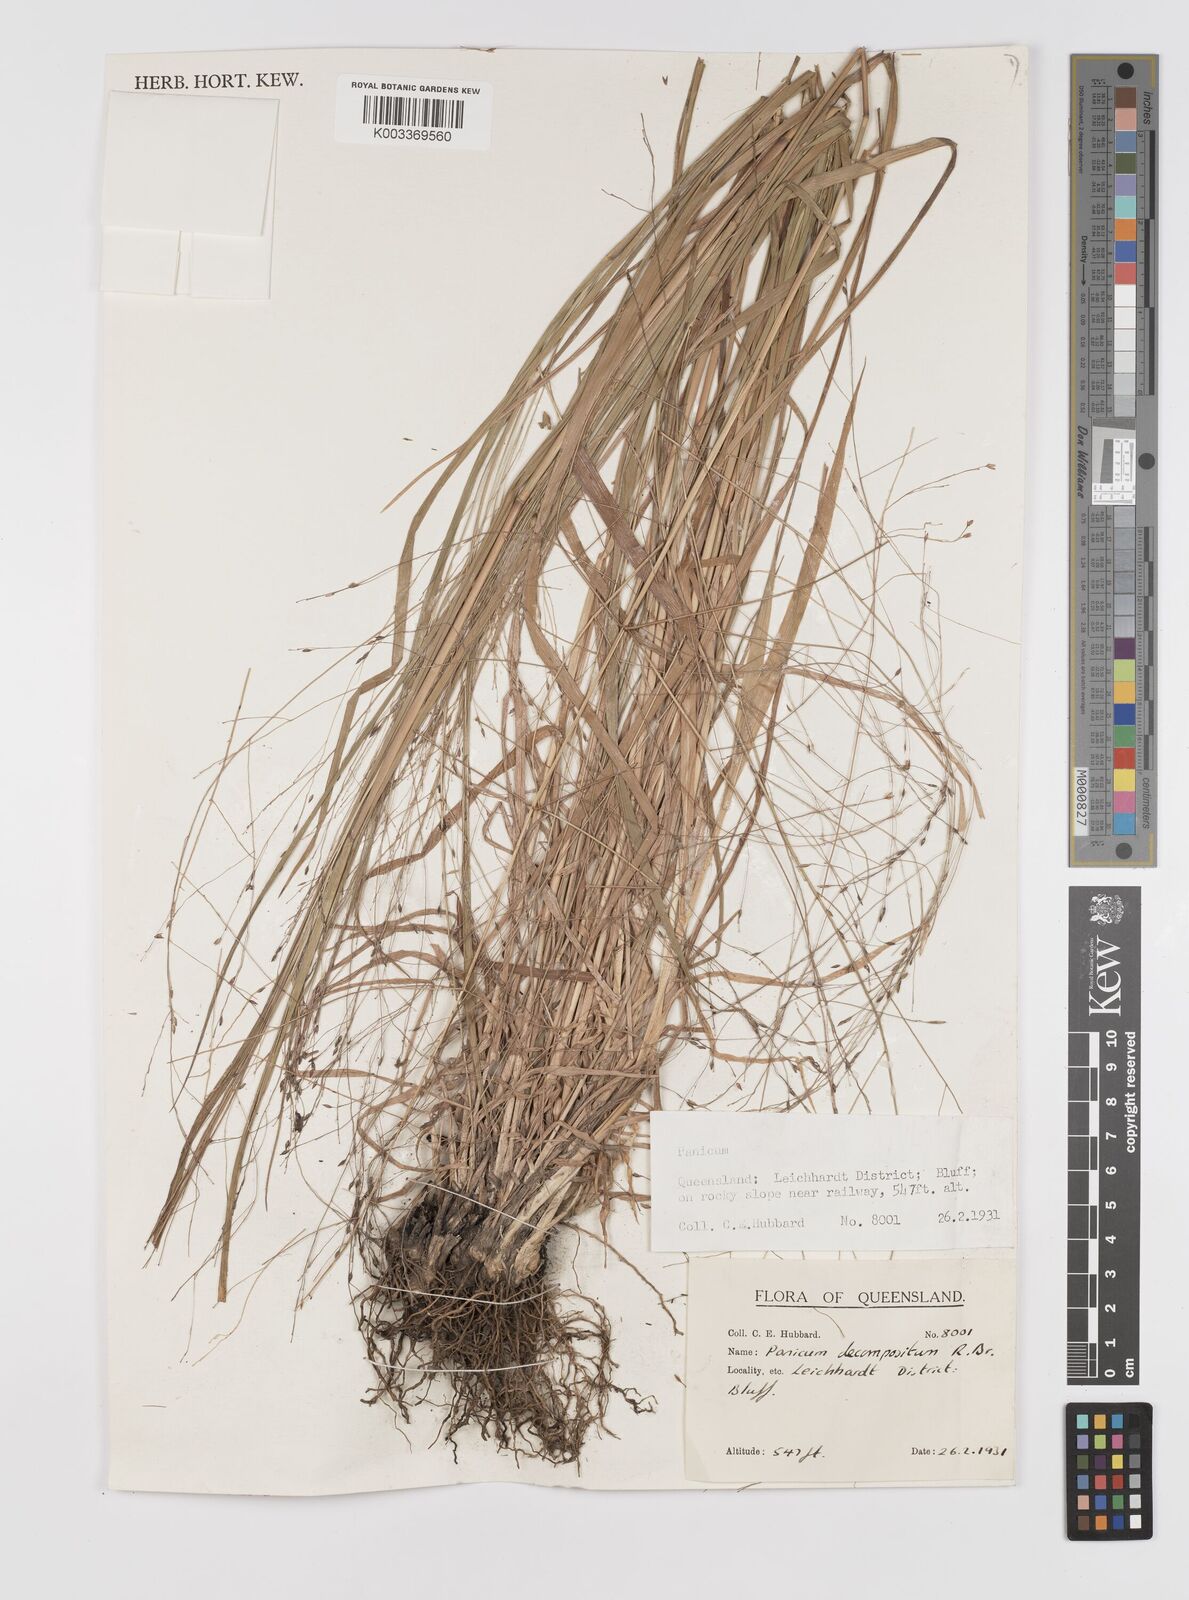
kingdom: Plantae
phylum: Tracheophyta
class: Liliopsida
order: Poales
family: Poaceae
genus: Panicum
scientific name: Panicum decompositum
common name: Australian millet
